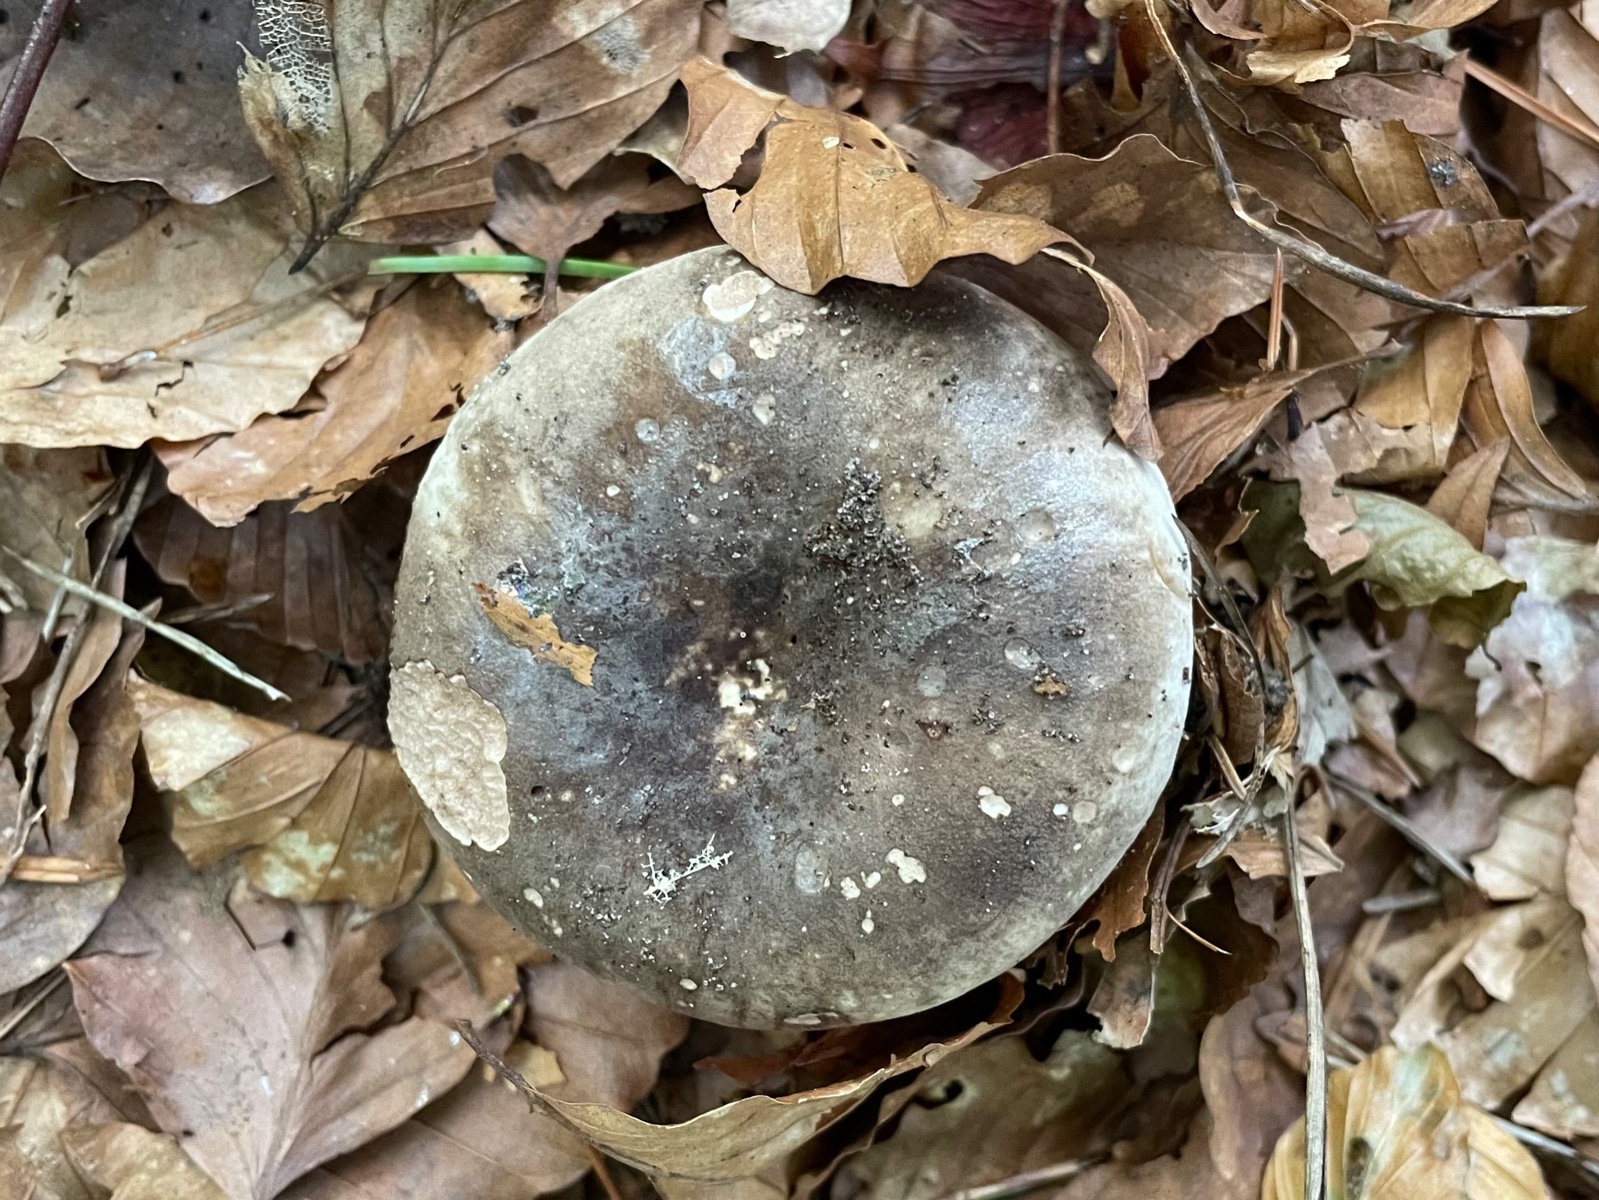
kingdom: Fungi
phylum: Basidiomycota
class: Agaricomycetes
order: Russulales
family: Russulaceae
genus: Russula
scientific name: Russula adusta
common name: sværtende skørhat
